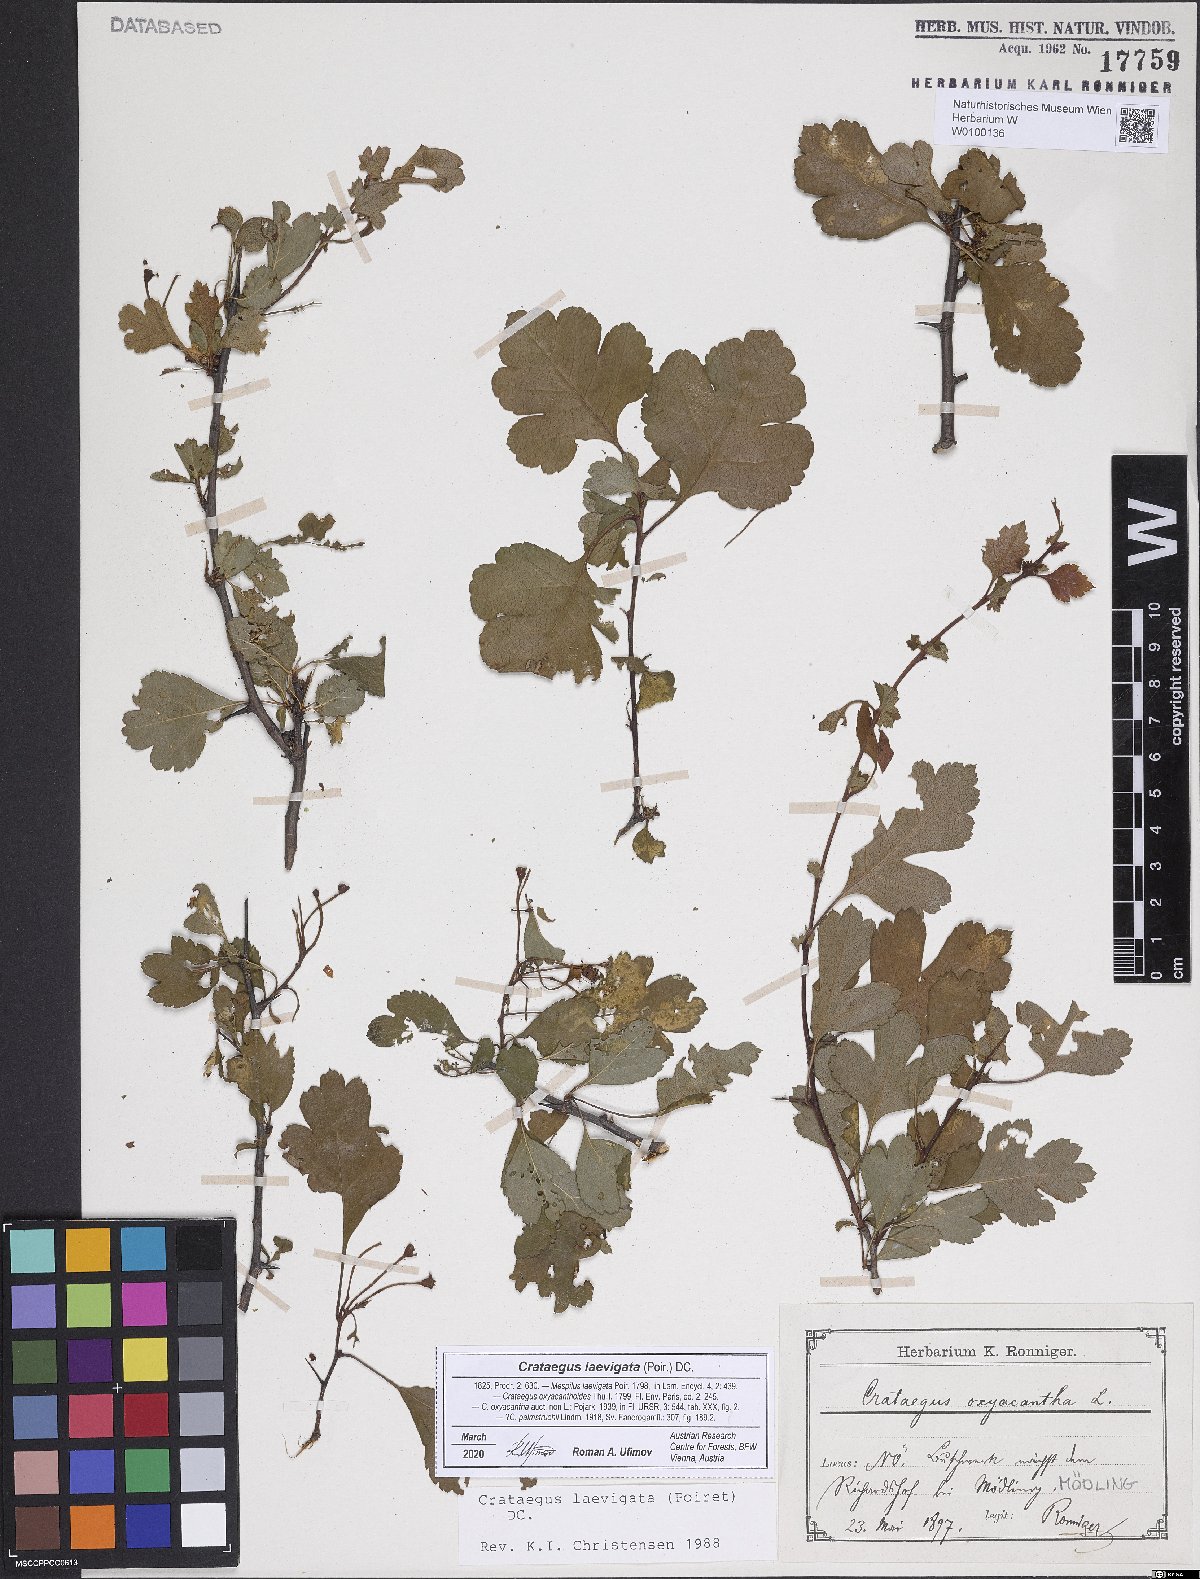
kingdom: Plantae
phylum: Tracheophyta
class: Magnoliopsida
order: Rosales
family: Rosaceae
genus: Crataegus
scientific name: Crataegus laevigata
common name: Midland hawthorn
